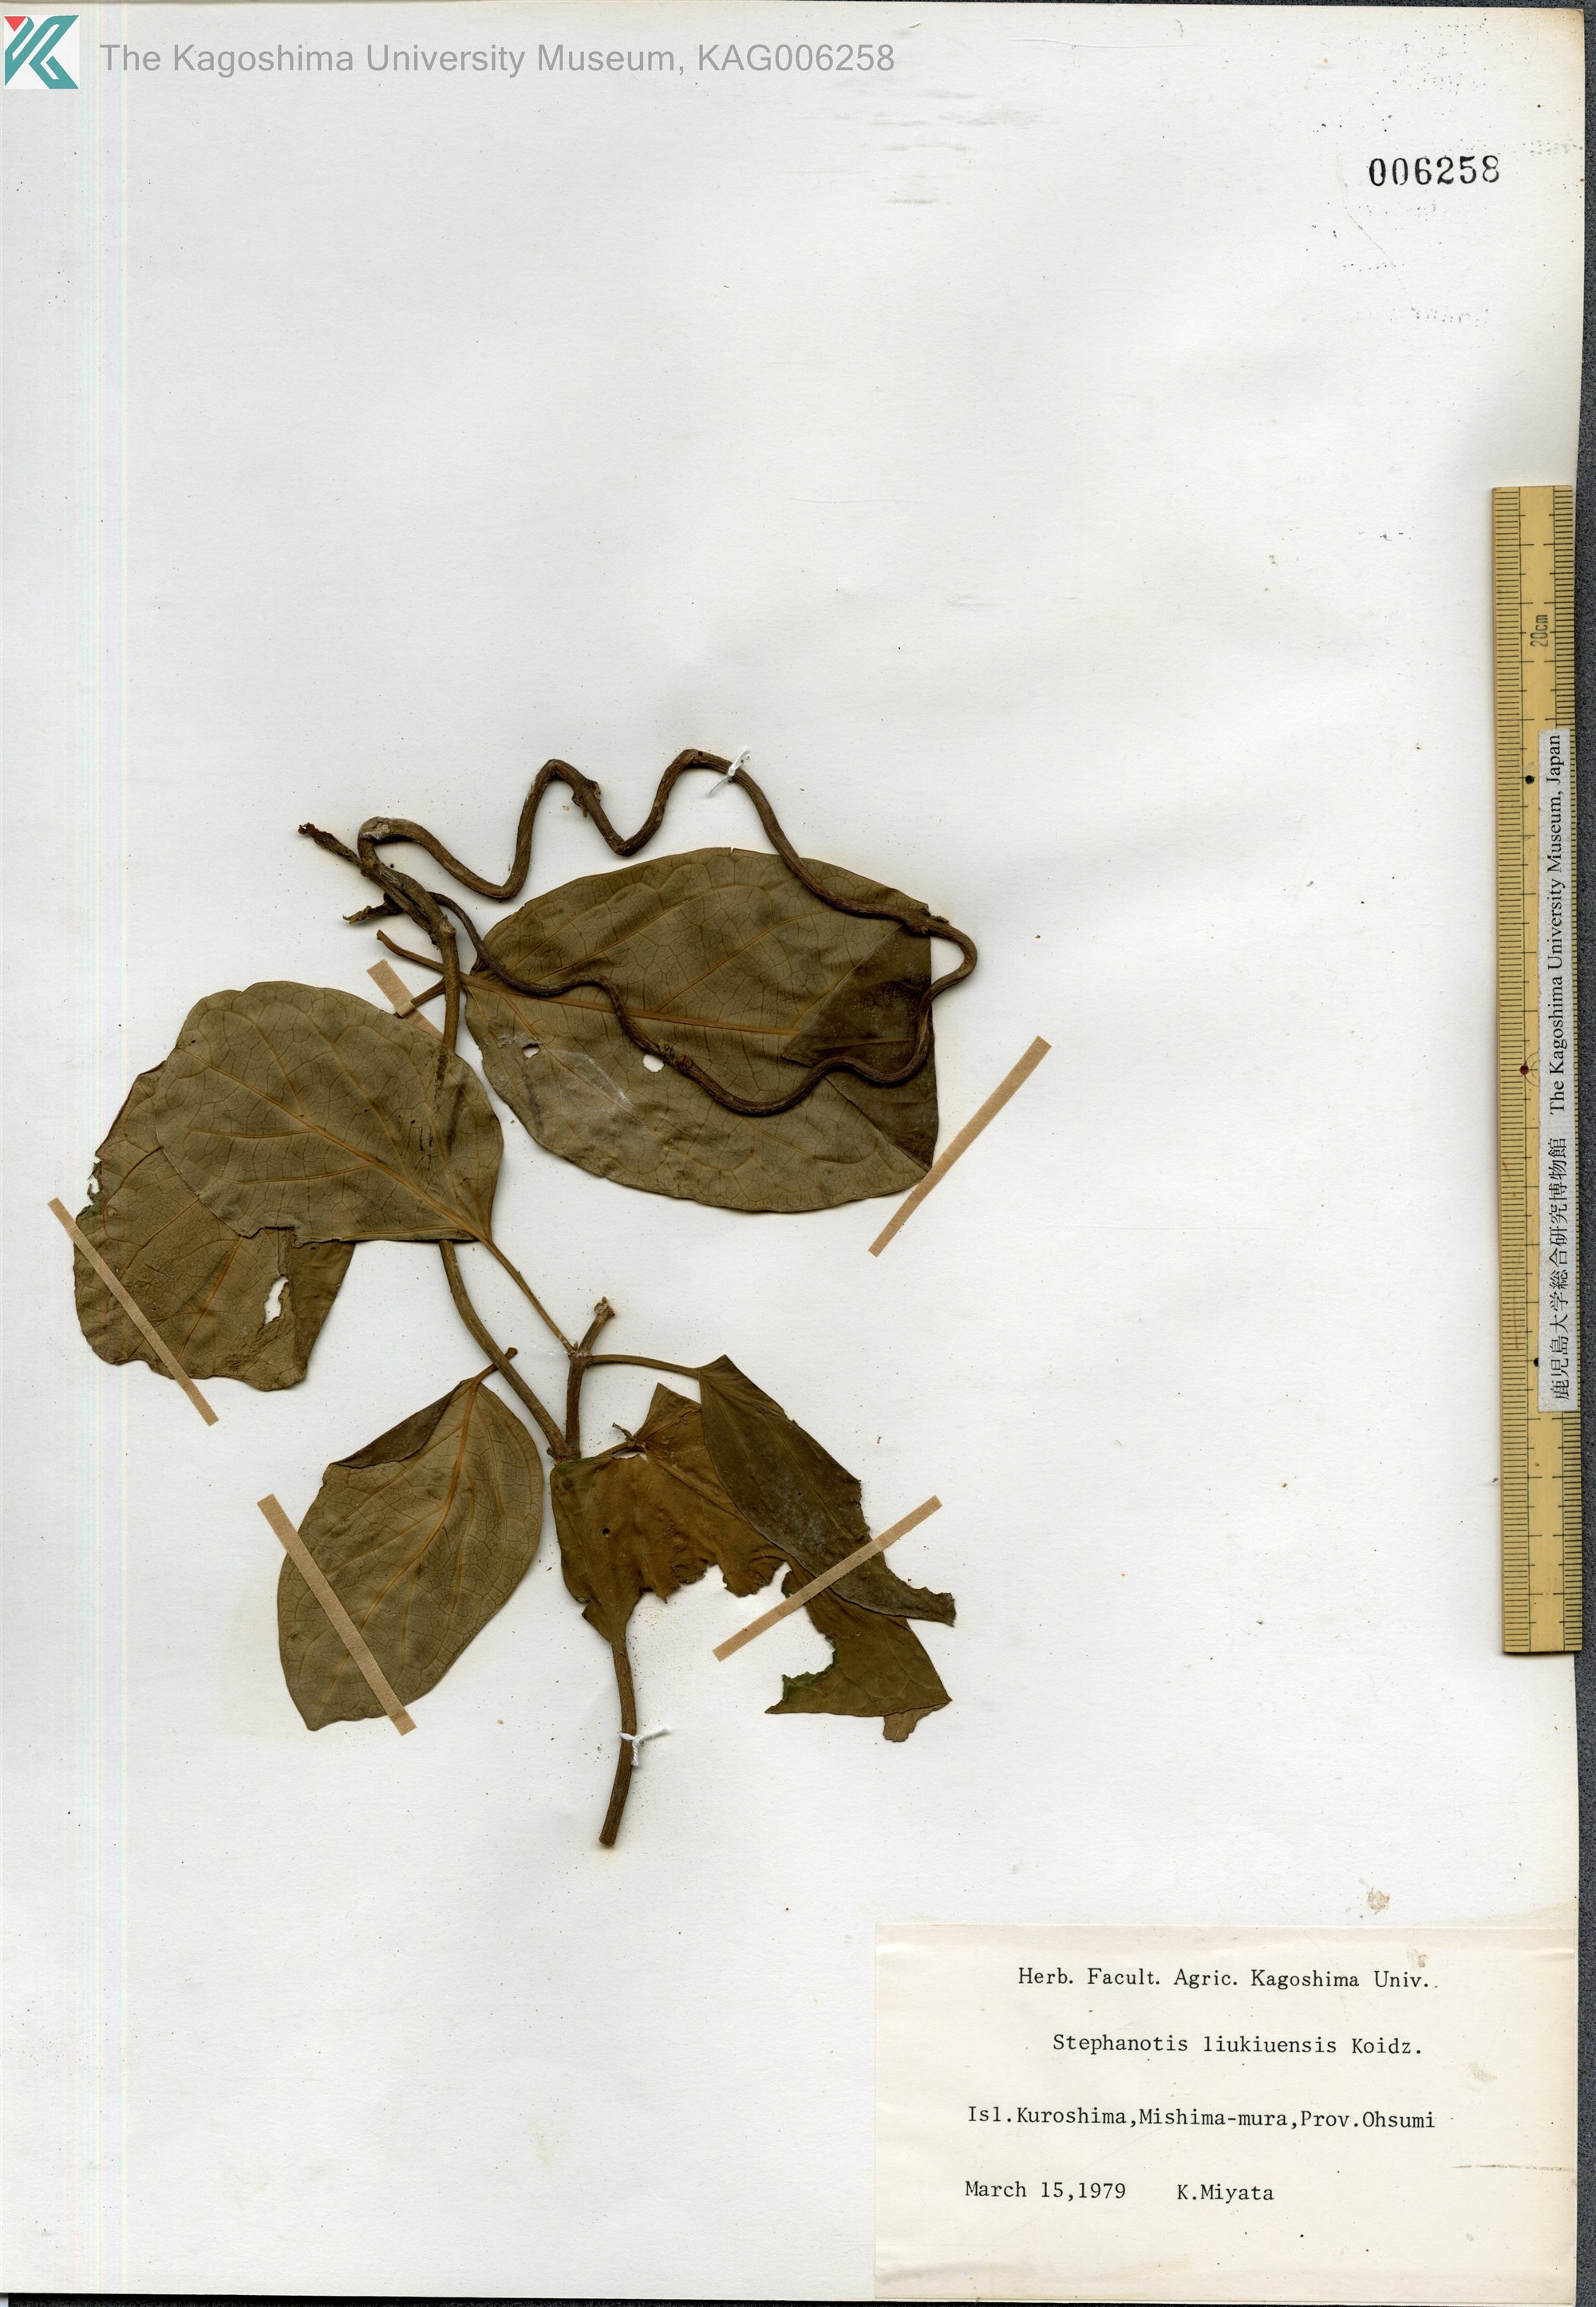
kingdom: Plantae
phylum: Tracheophyta
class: Magnoliopsida
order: Gentianales
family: Apocynaceae
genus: Jasminanthes
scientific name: Jasminanthes mucronata
